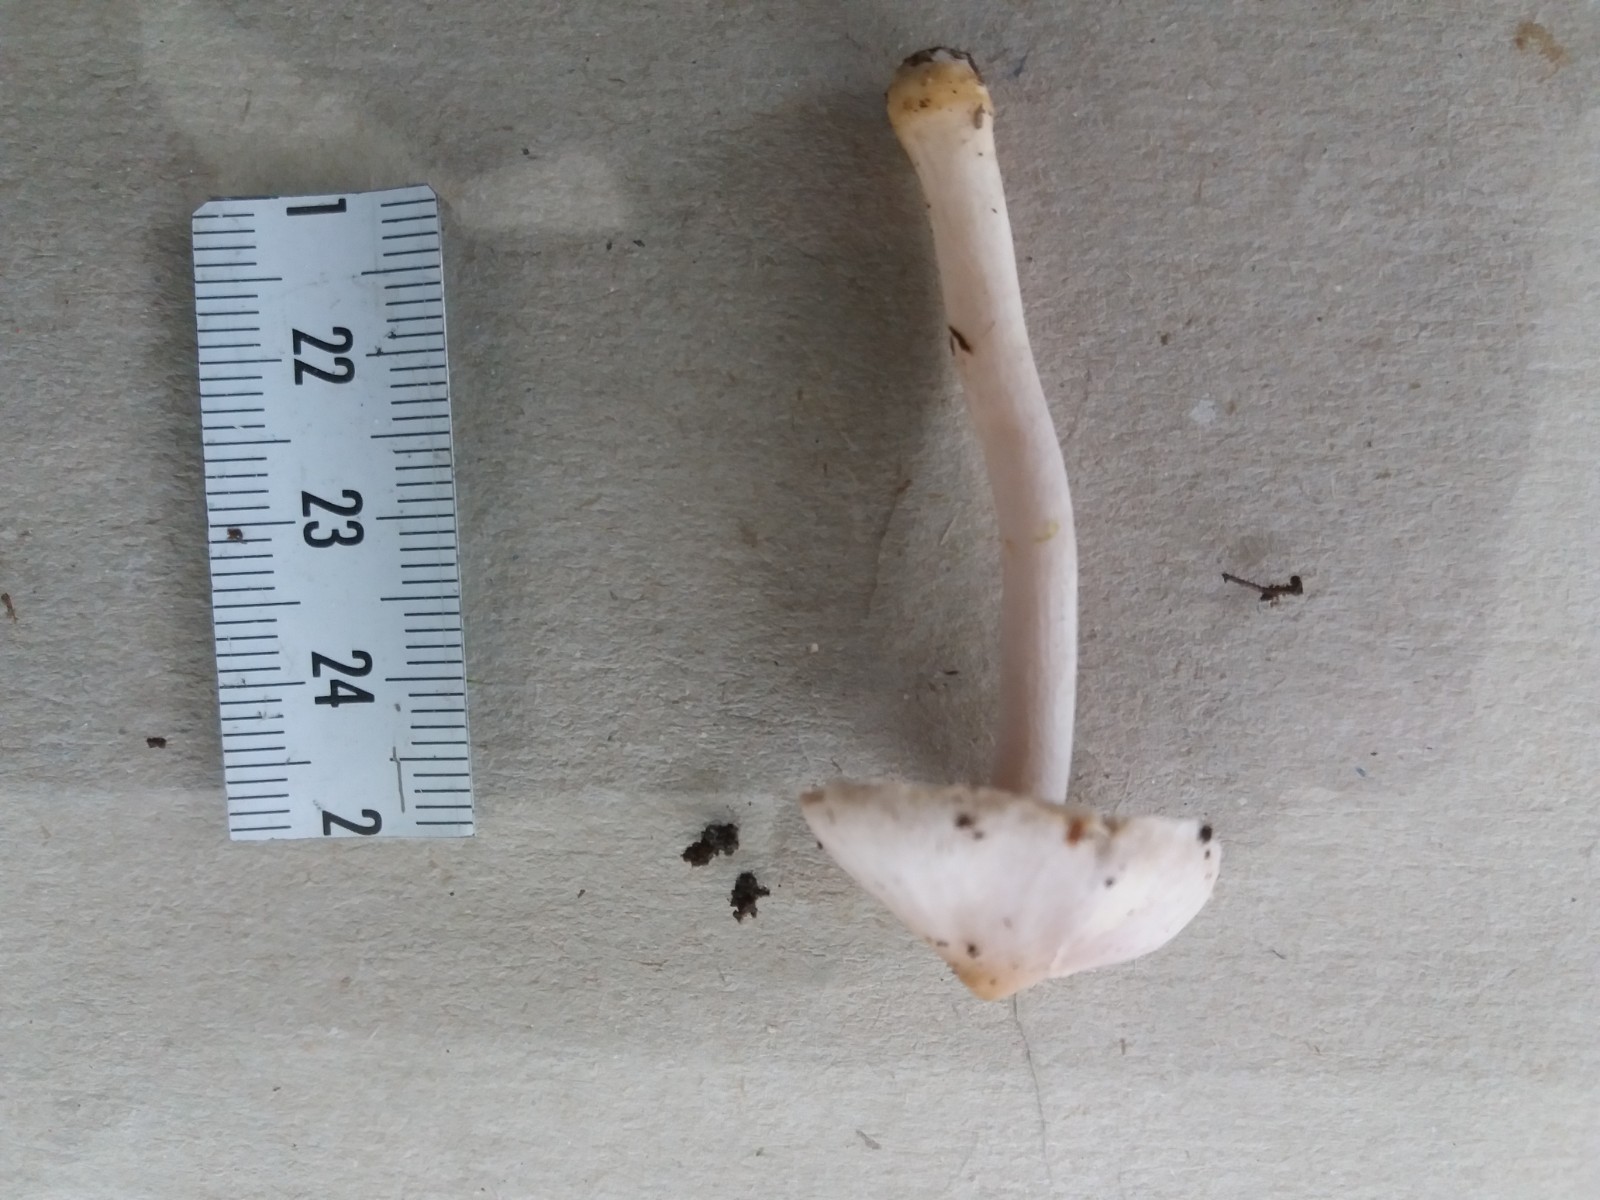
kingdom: Fungi
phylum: Basidiomycota
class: Agaricomycetes
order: Agaricales
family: Inocybaceae
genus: Inocybe
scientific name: Inocybe geophylla
